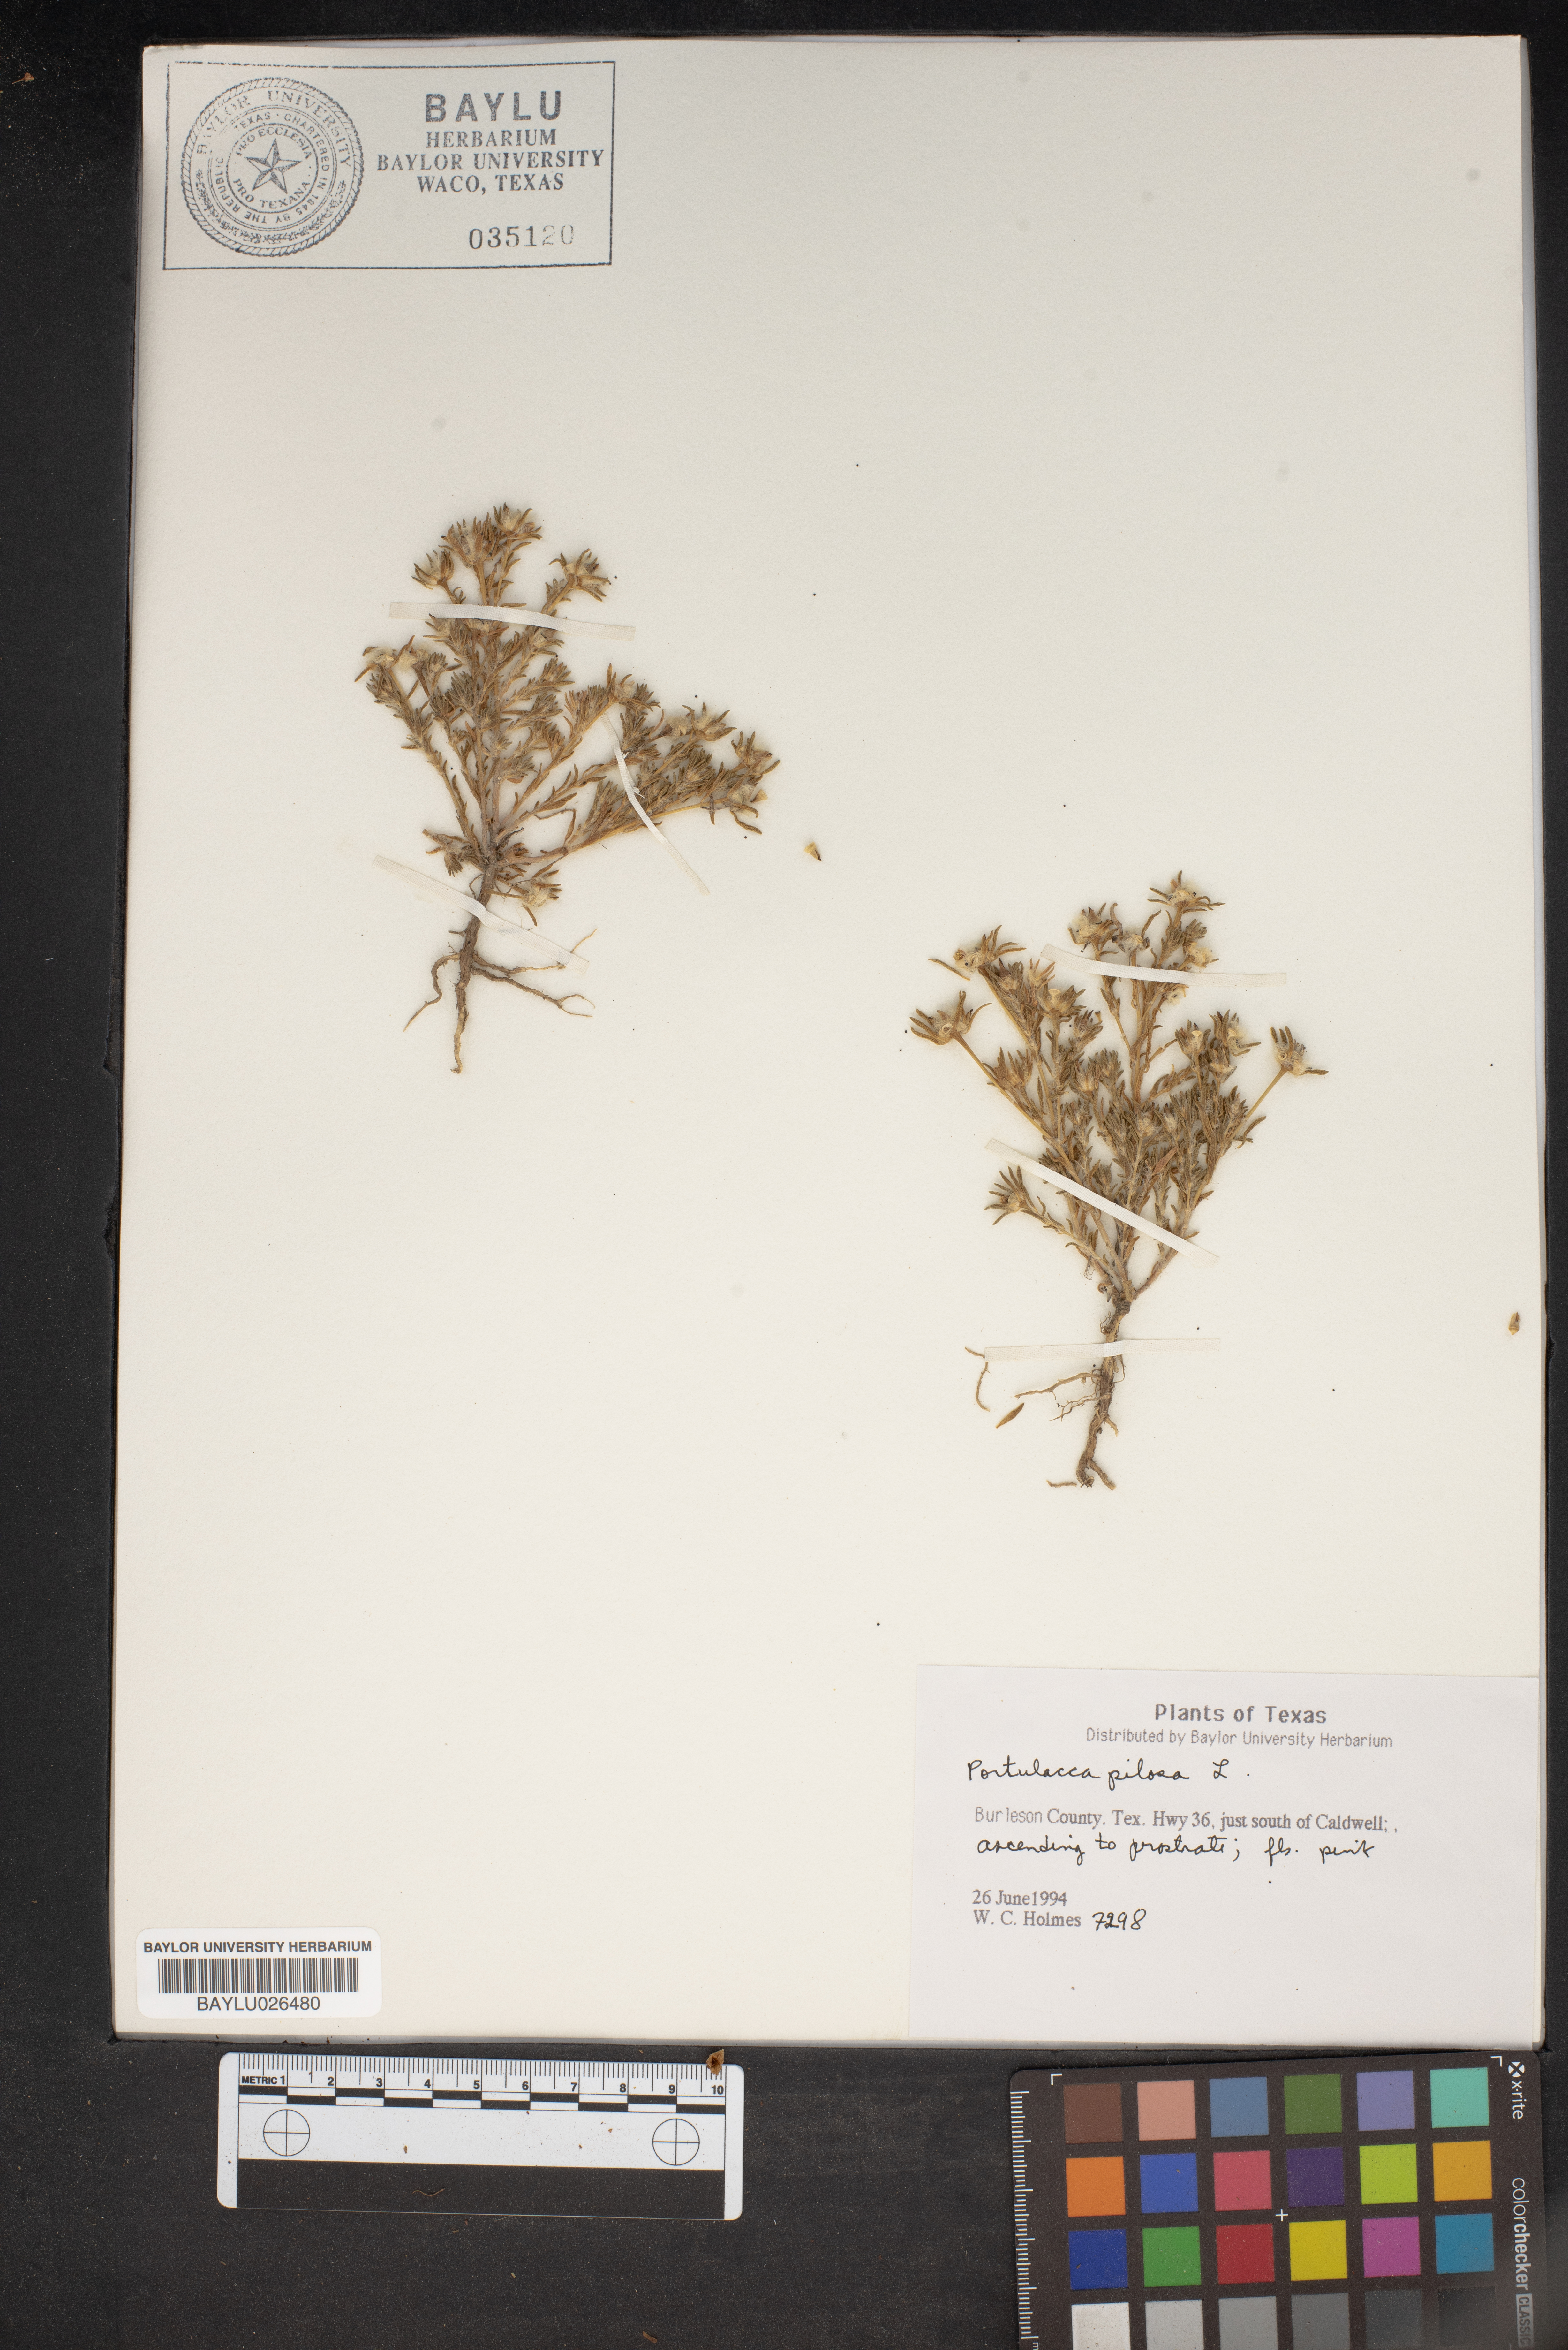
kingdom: Plantae
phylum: Tracheophyta
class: Magnoliopsida
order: Caryophyllales
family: Portulacaceae
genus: Portulaca
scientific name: Portulaca pilosa
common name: Kiss me quick
